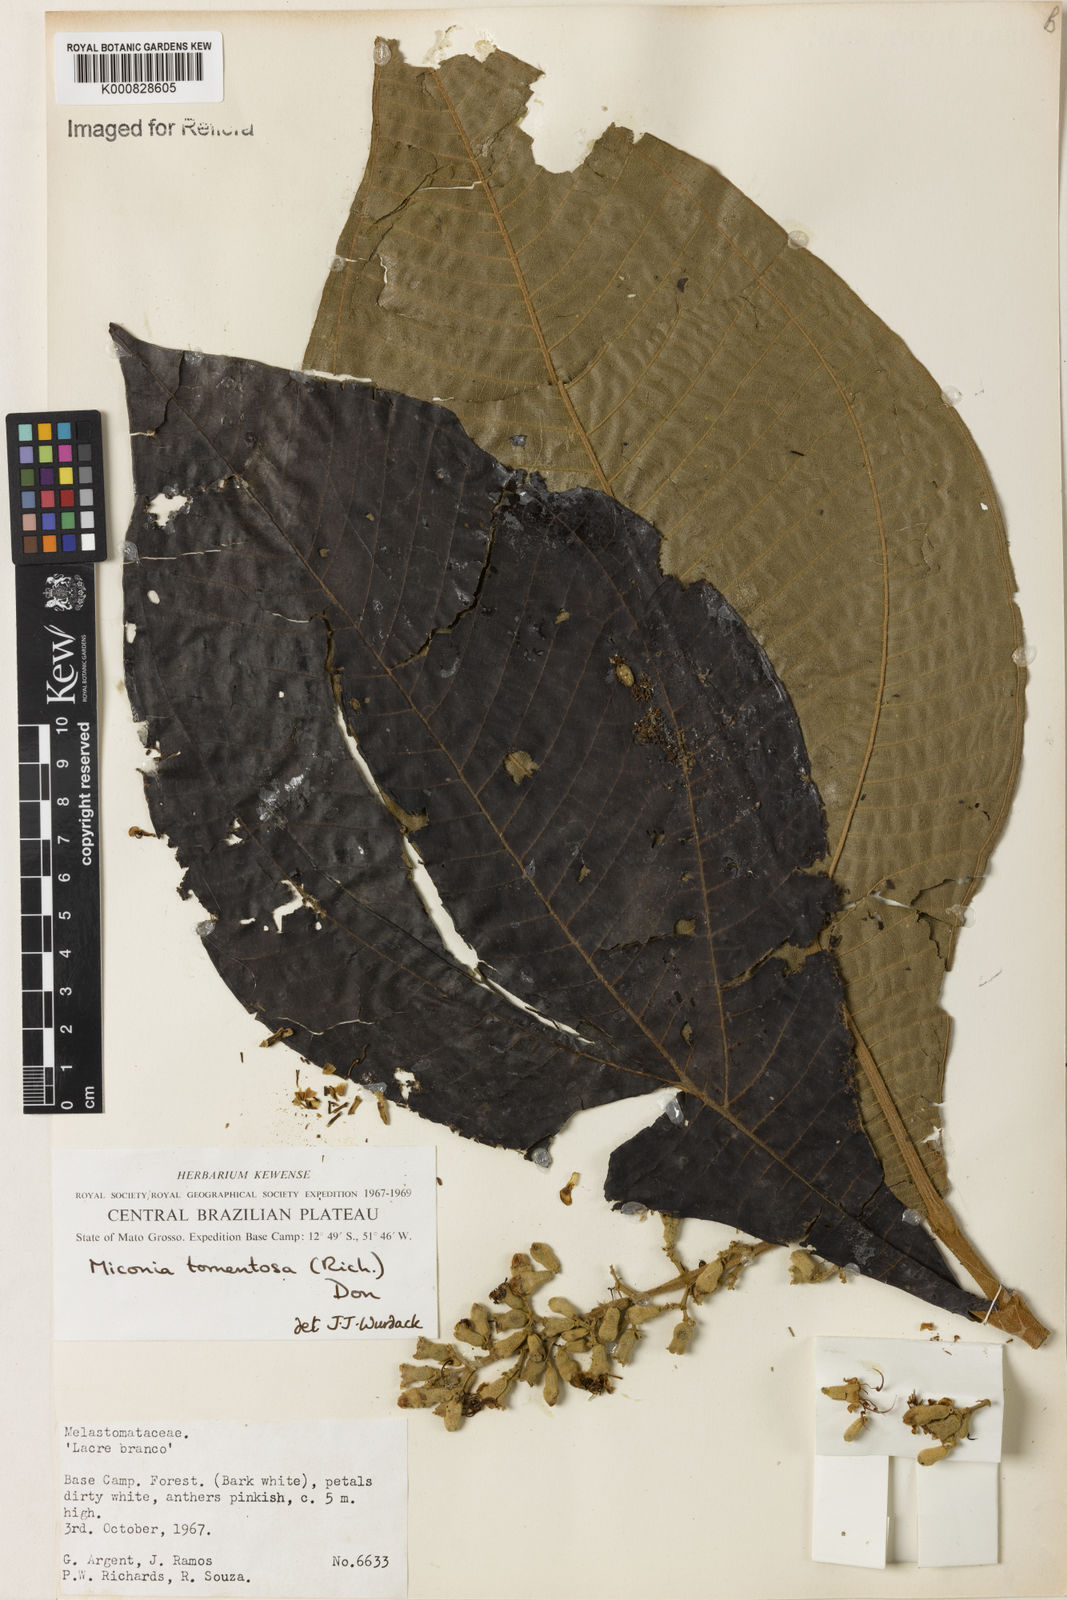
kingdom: Plantae
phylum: Tracheophyta
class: Magnoliopsida
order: Myrtales
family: Melastomataceae
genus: Miconia
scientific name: Miconia tomentosa
